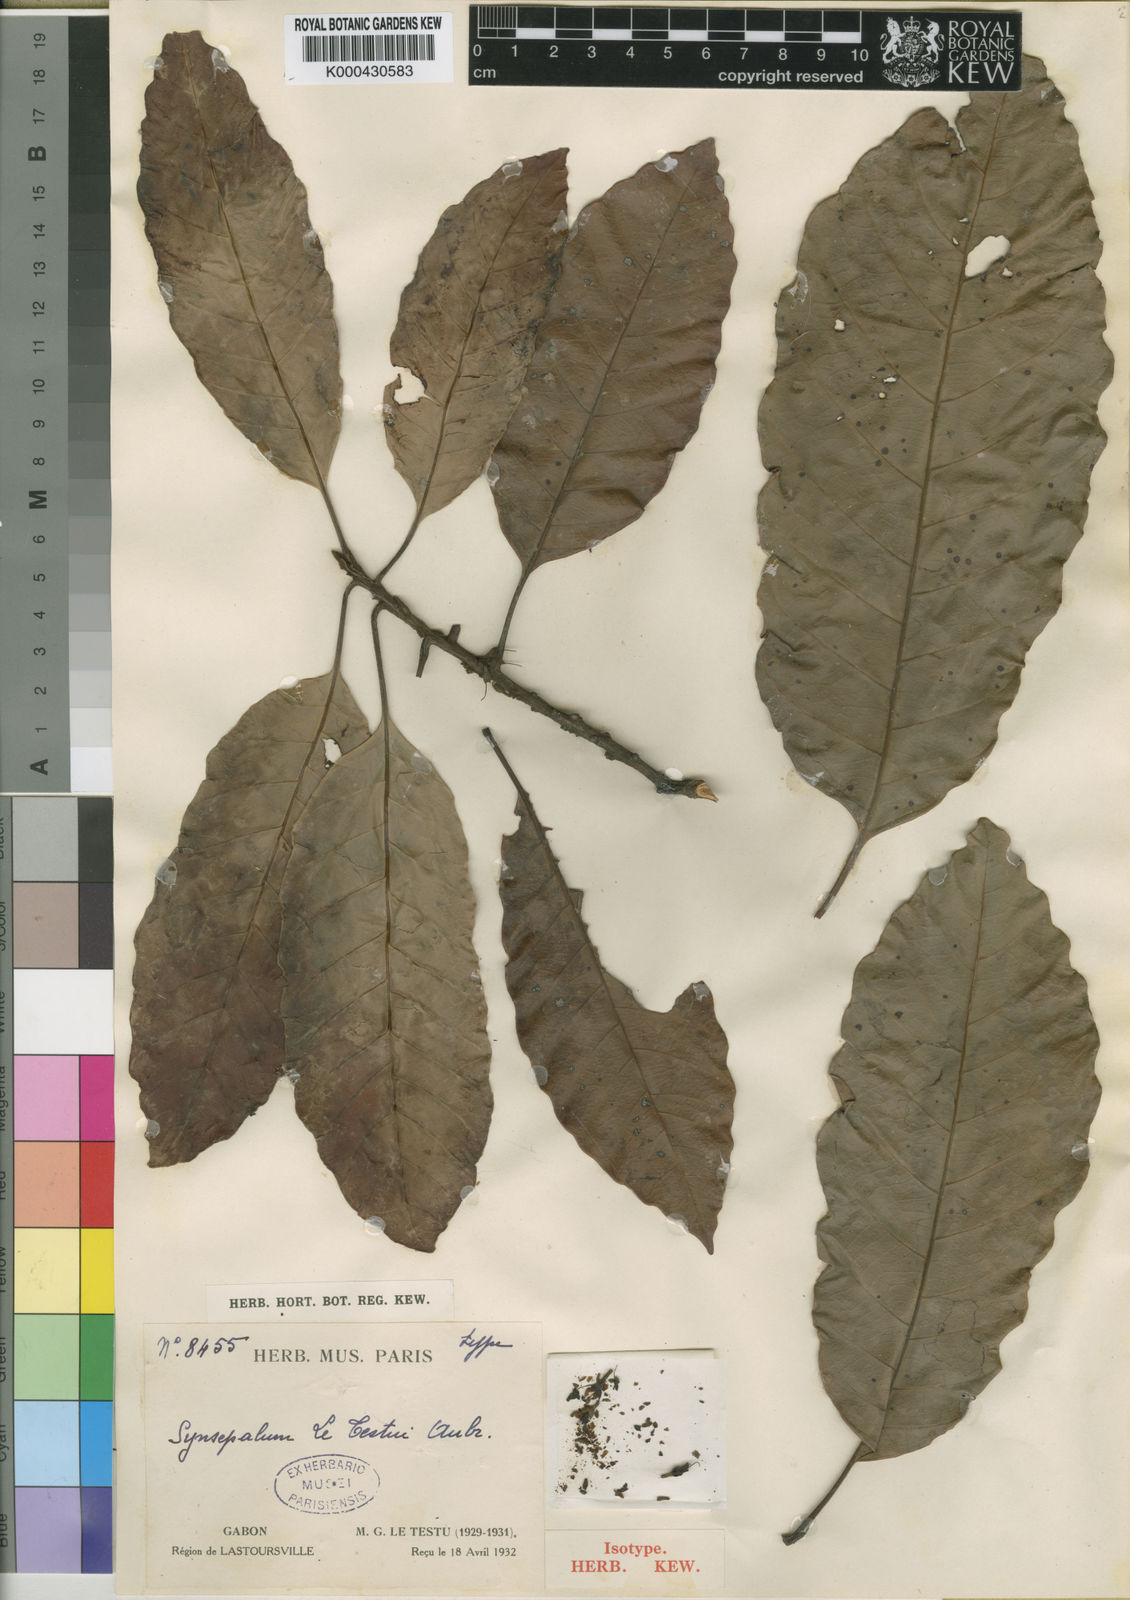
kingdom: Plantae
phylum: Tracheophyta
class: Magnoliopsida
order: Ericales
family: Sapotaceae
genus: Synsepalum
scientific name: Synsepalum
